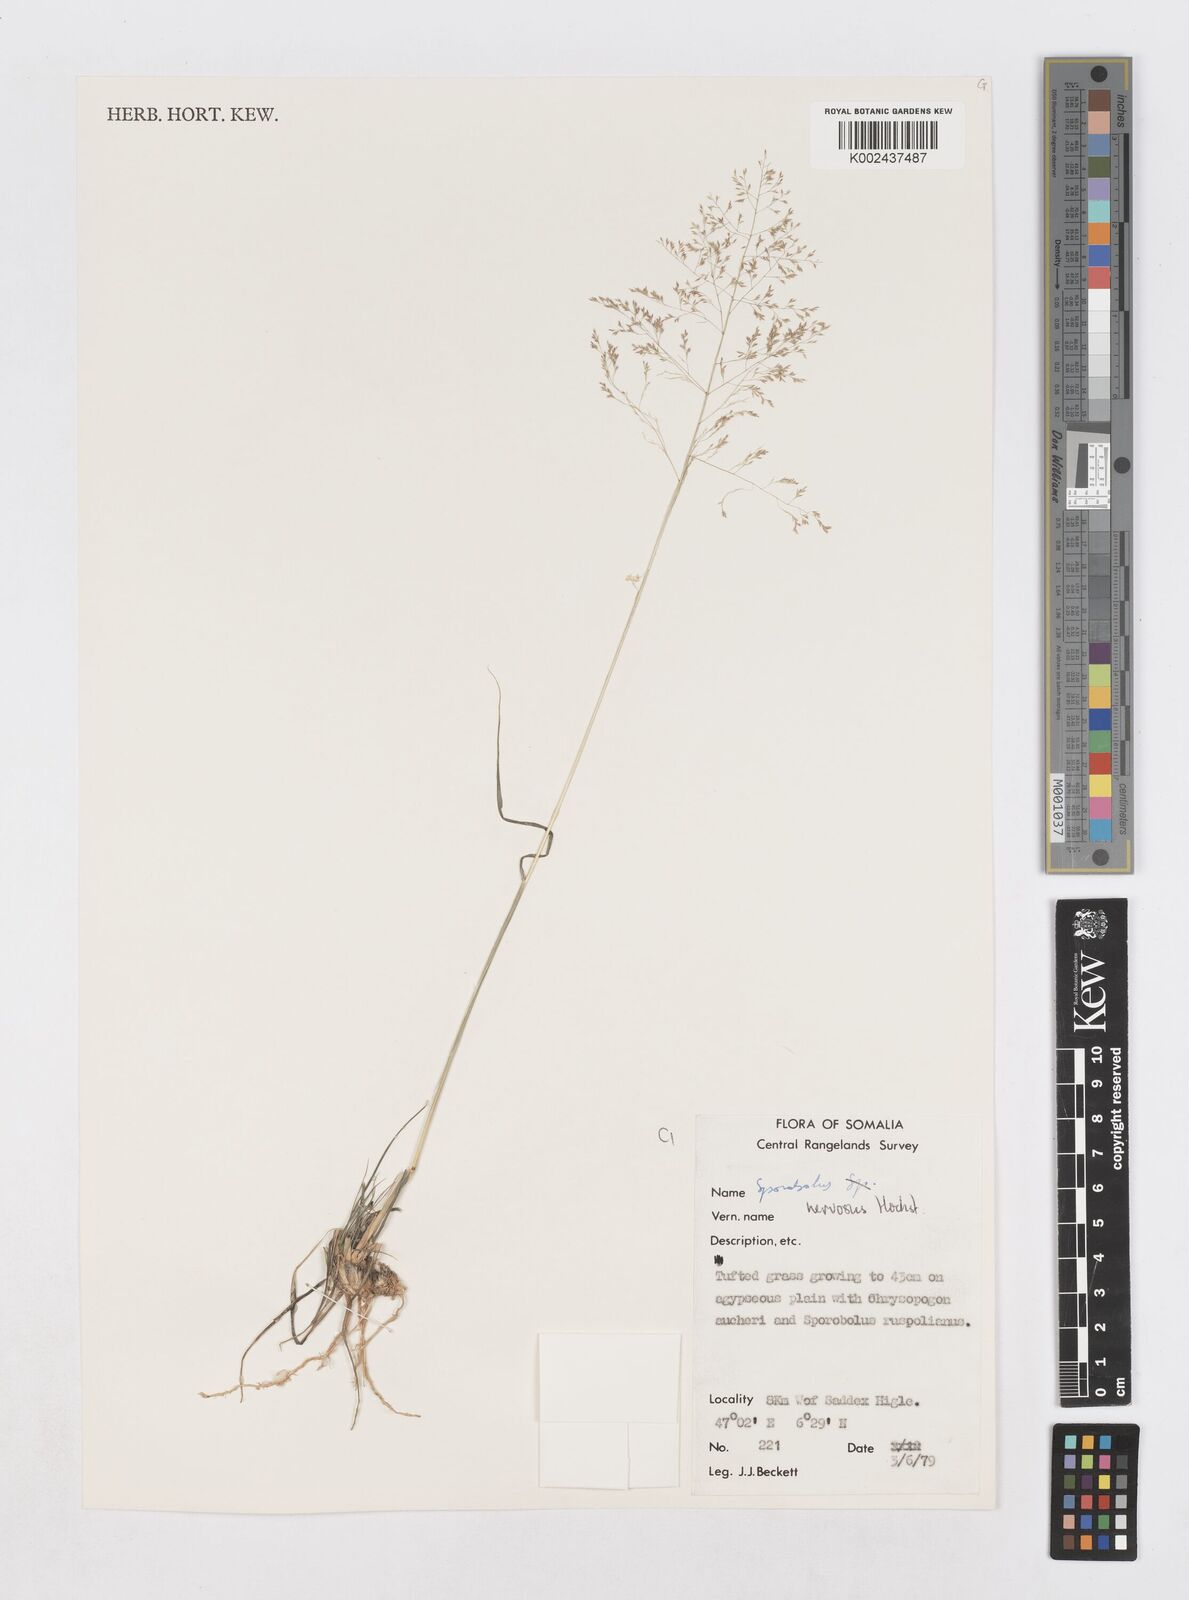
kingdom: Plantae
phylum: Tracheophyta
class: Liliopsida
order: Poales
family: Poaceae
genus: Sporobolus
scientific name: Sporobolus nervosus
